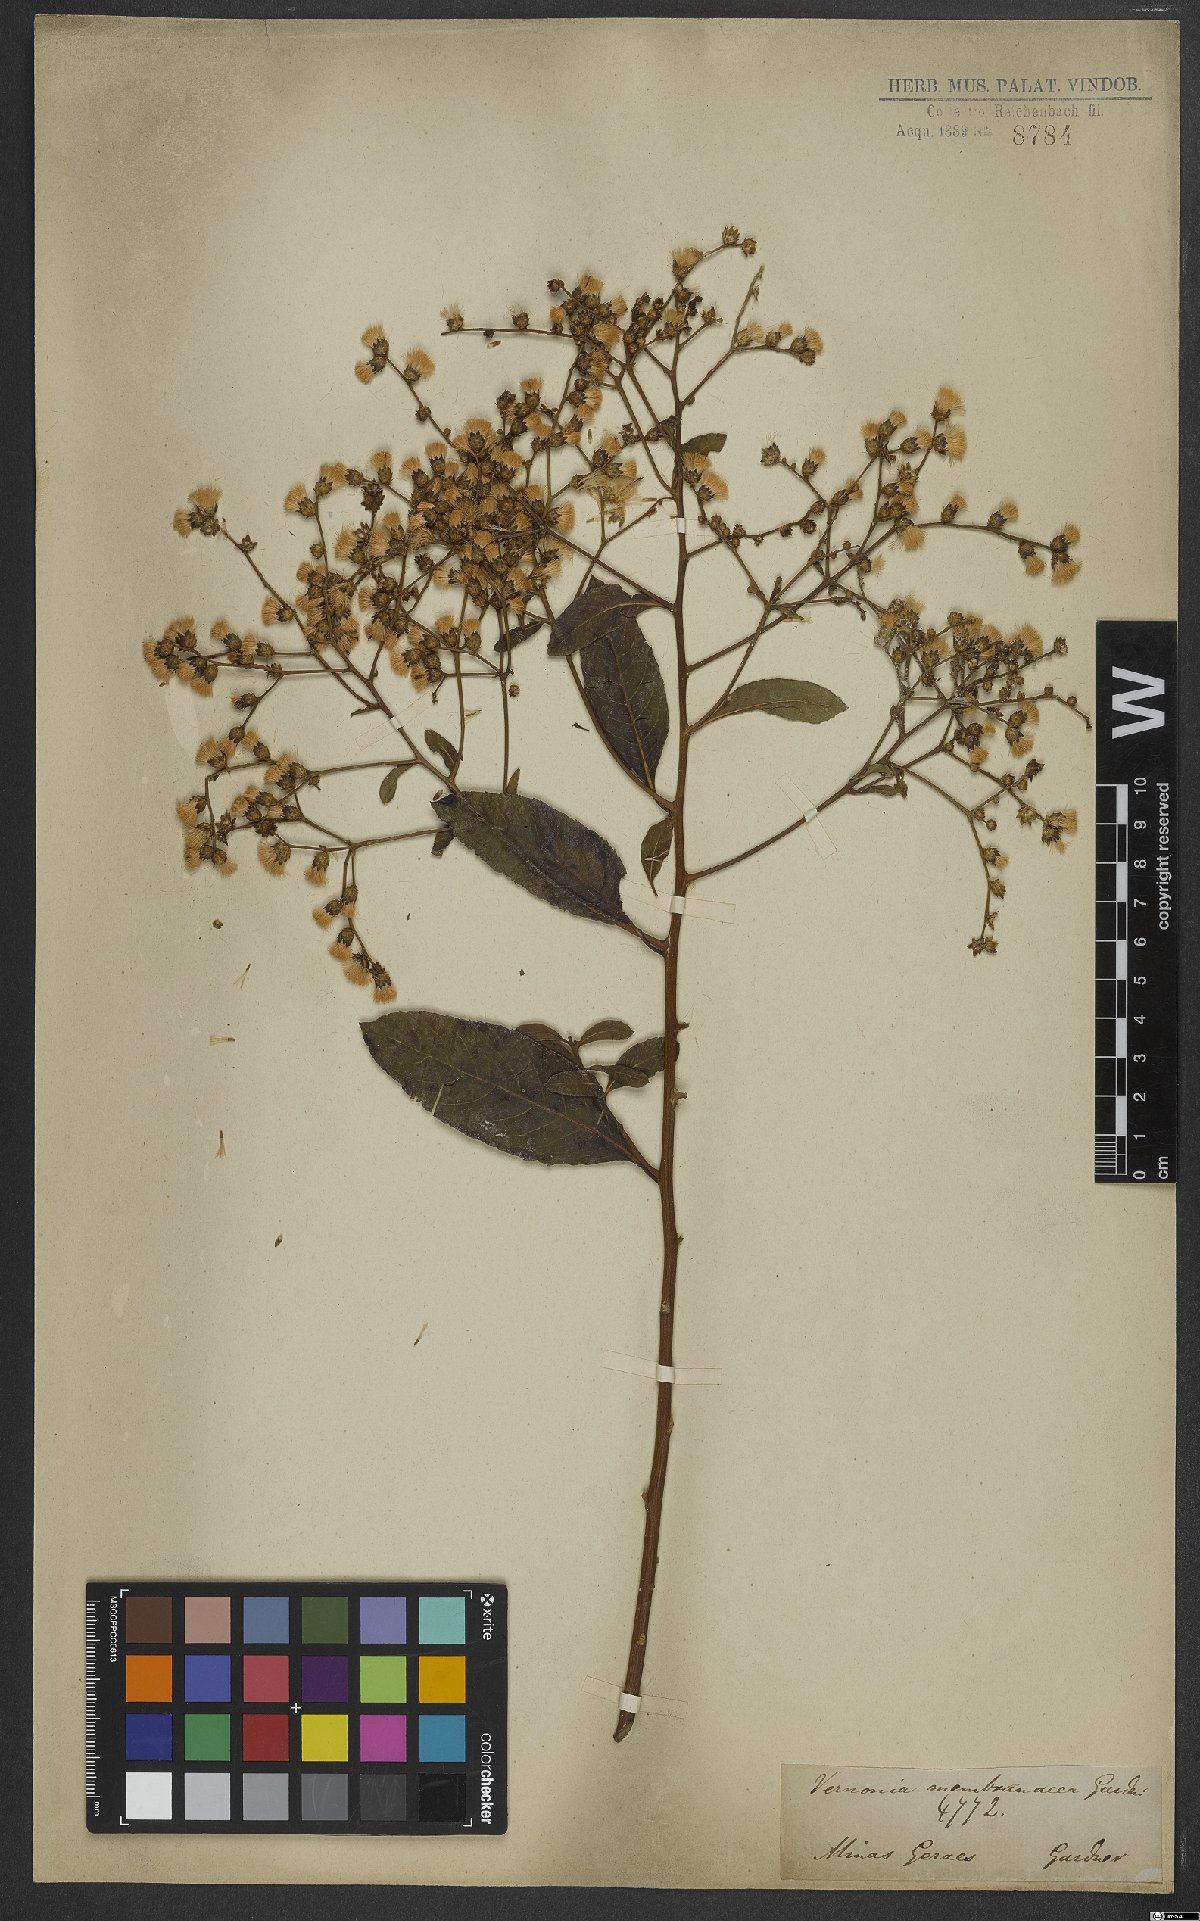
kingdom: Plantae
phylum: Tracheophyta
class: Magnoliopsida
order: Asterales
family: Asteraceae
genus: Vernonanthura
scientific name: Vernonanthura membranacea
